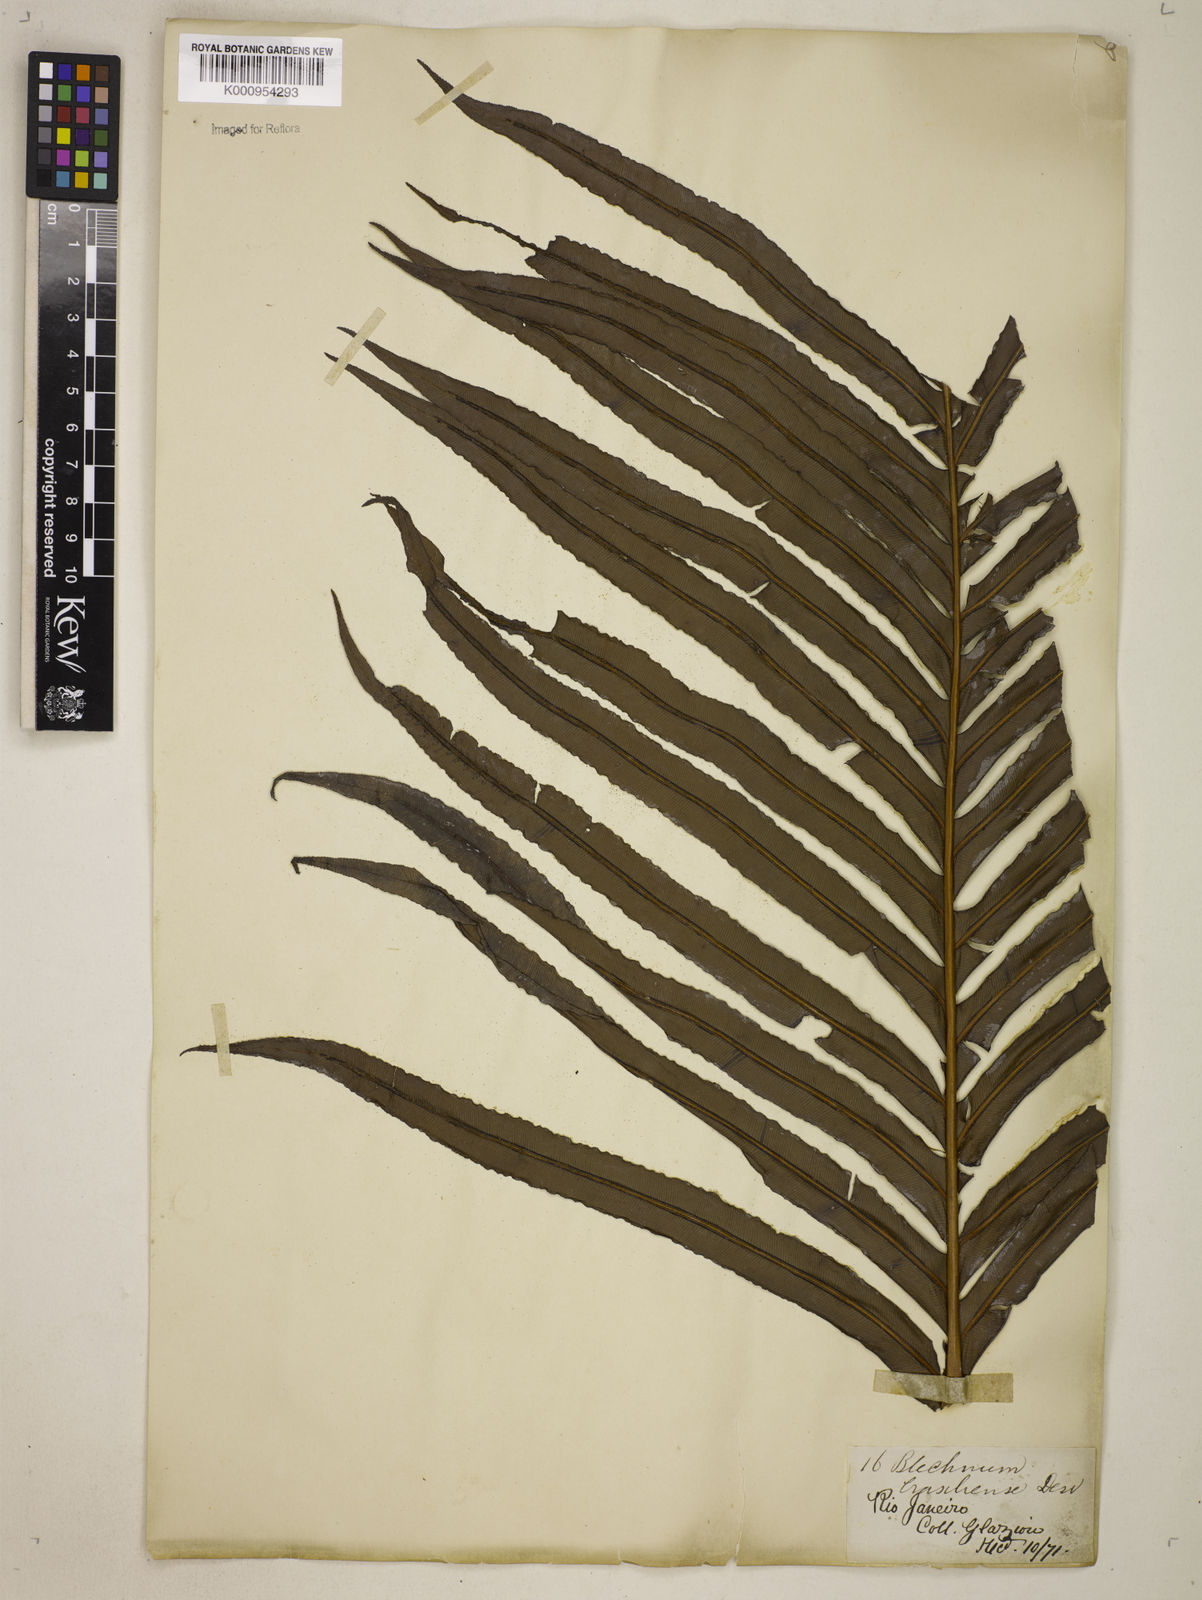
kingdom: Plantae
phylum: Tracheophyta
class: Polypodiopsida
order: Polypodiales
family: Blechnaceae
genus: Neoblechnum
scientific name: Neoblechnum brasiliense
